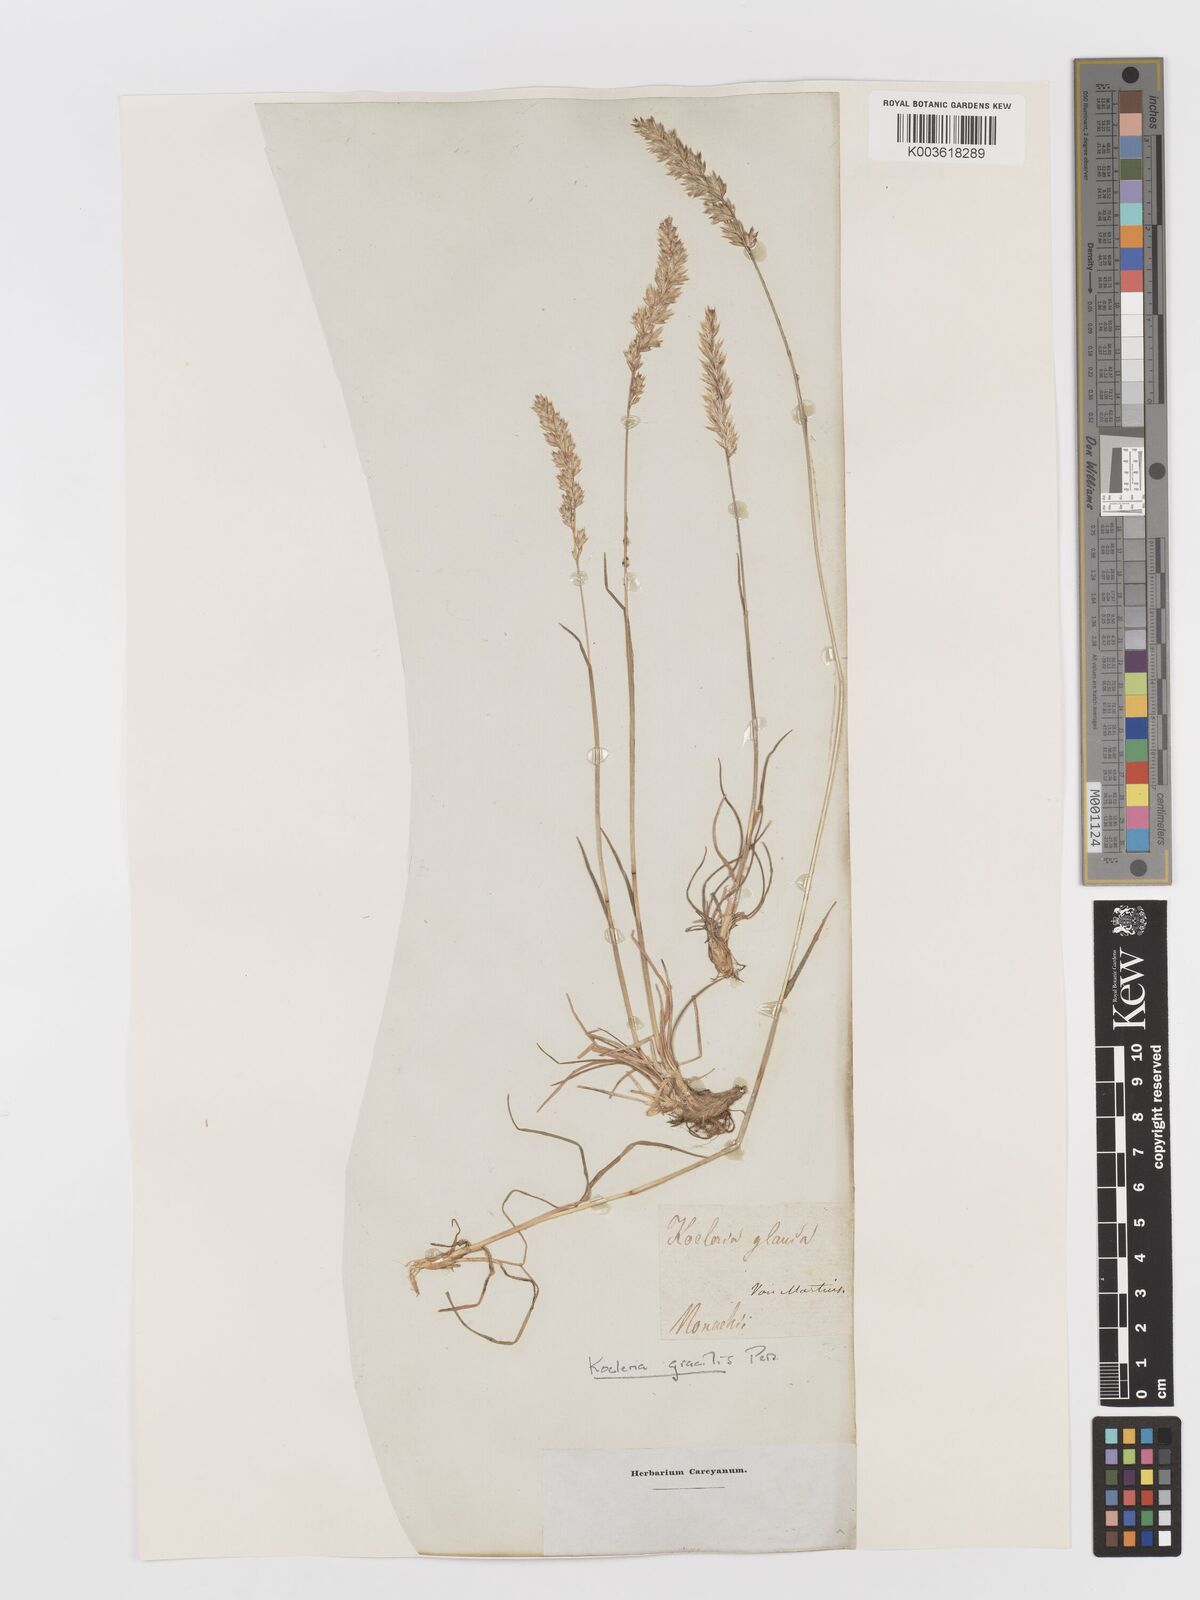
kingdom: Plantae
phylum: Tracheophyta
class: Liliopsida
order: Poales
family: Poaceae
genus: Koeleria
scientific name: Koeleria macrantha
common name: Crested hair-grass
